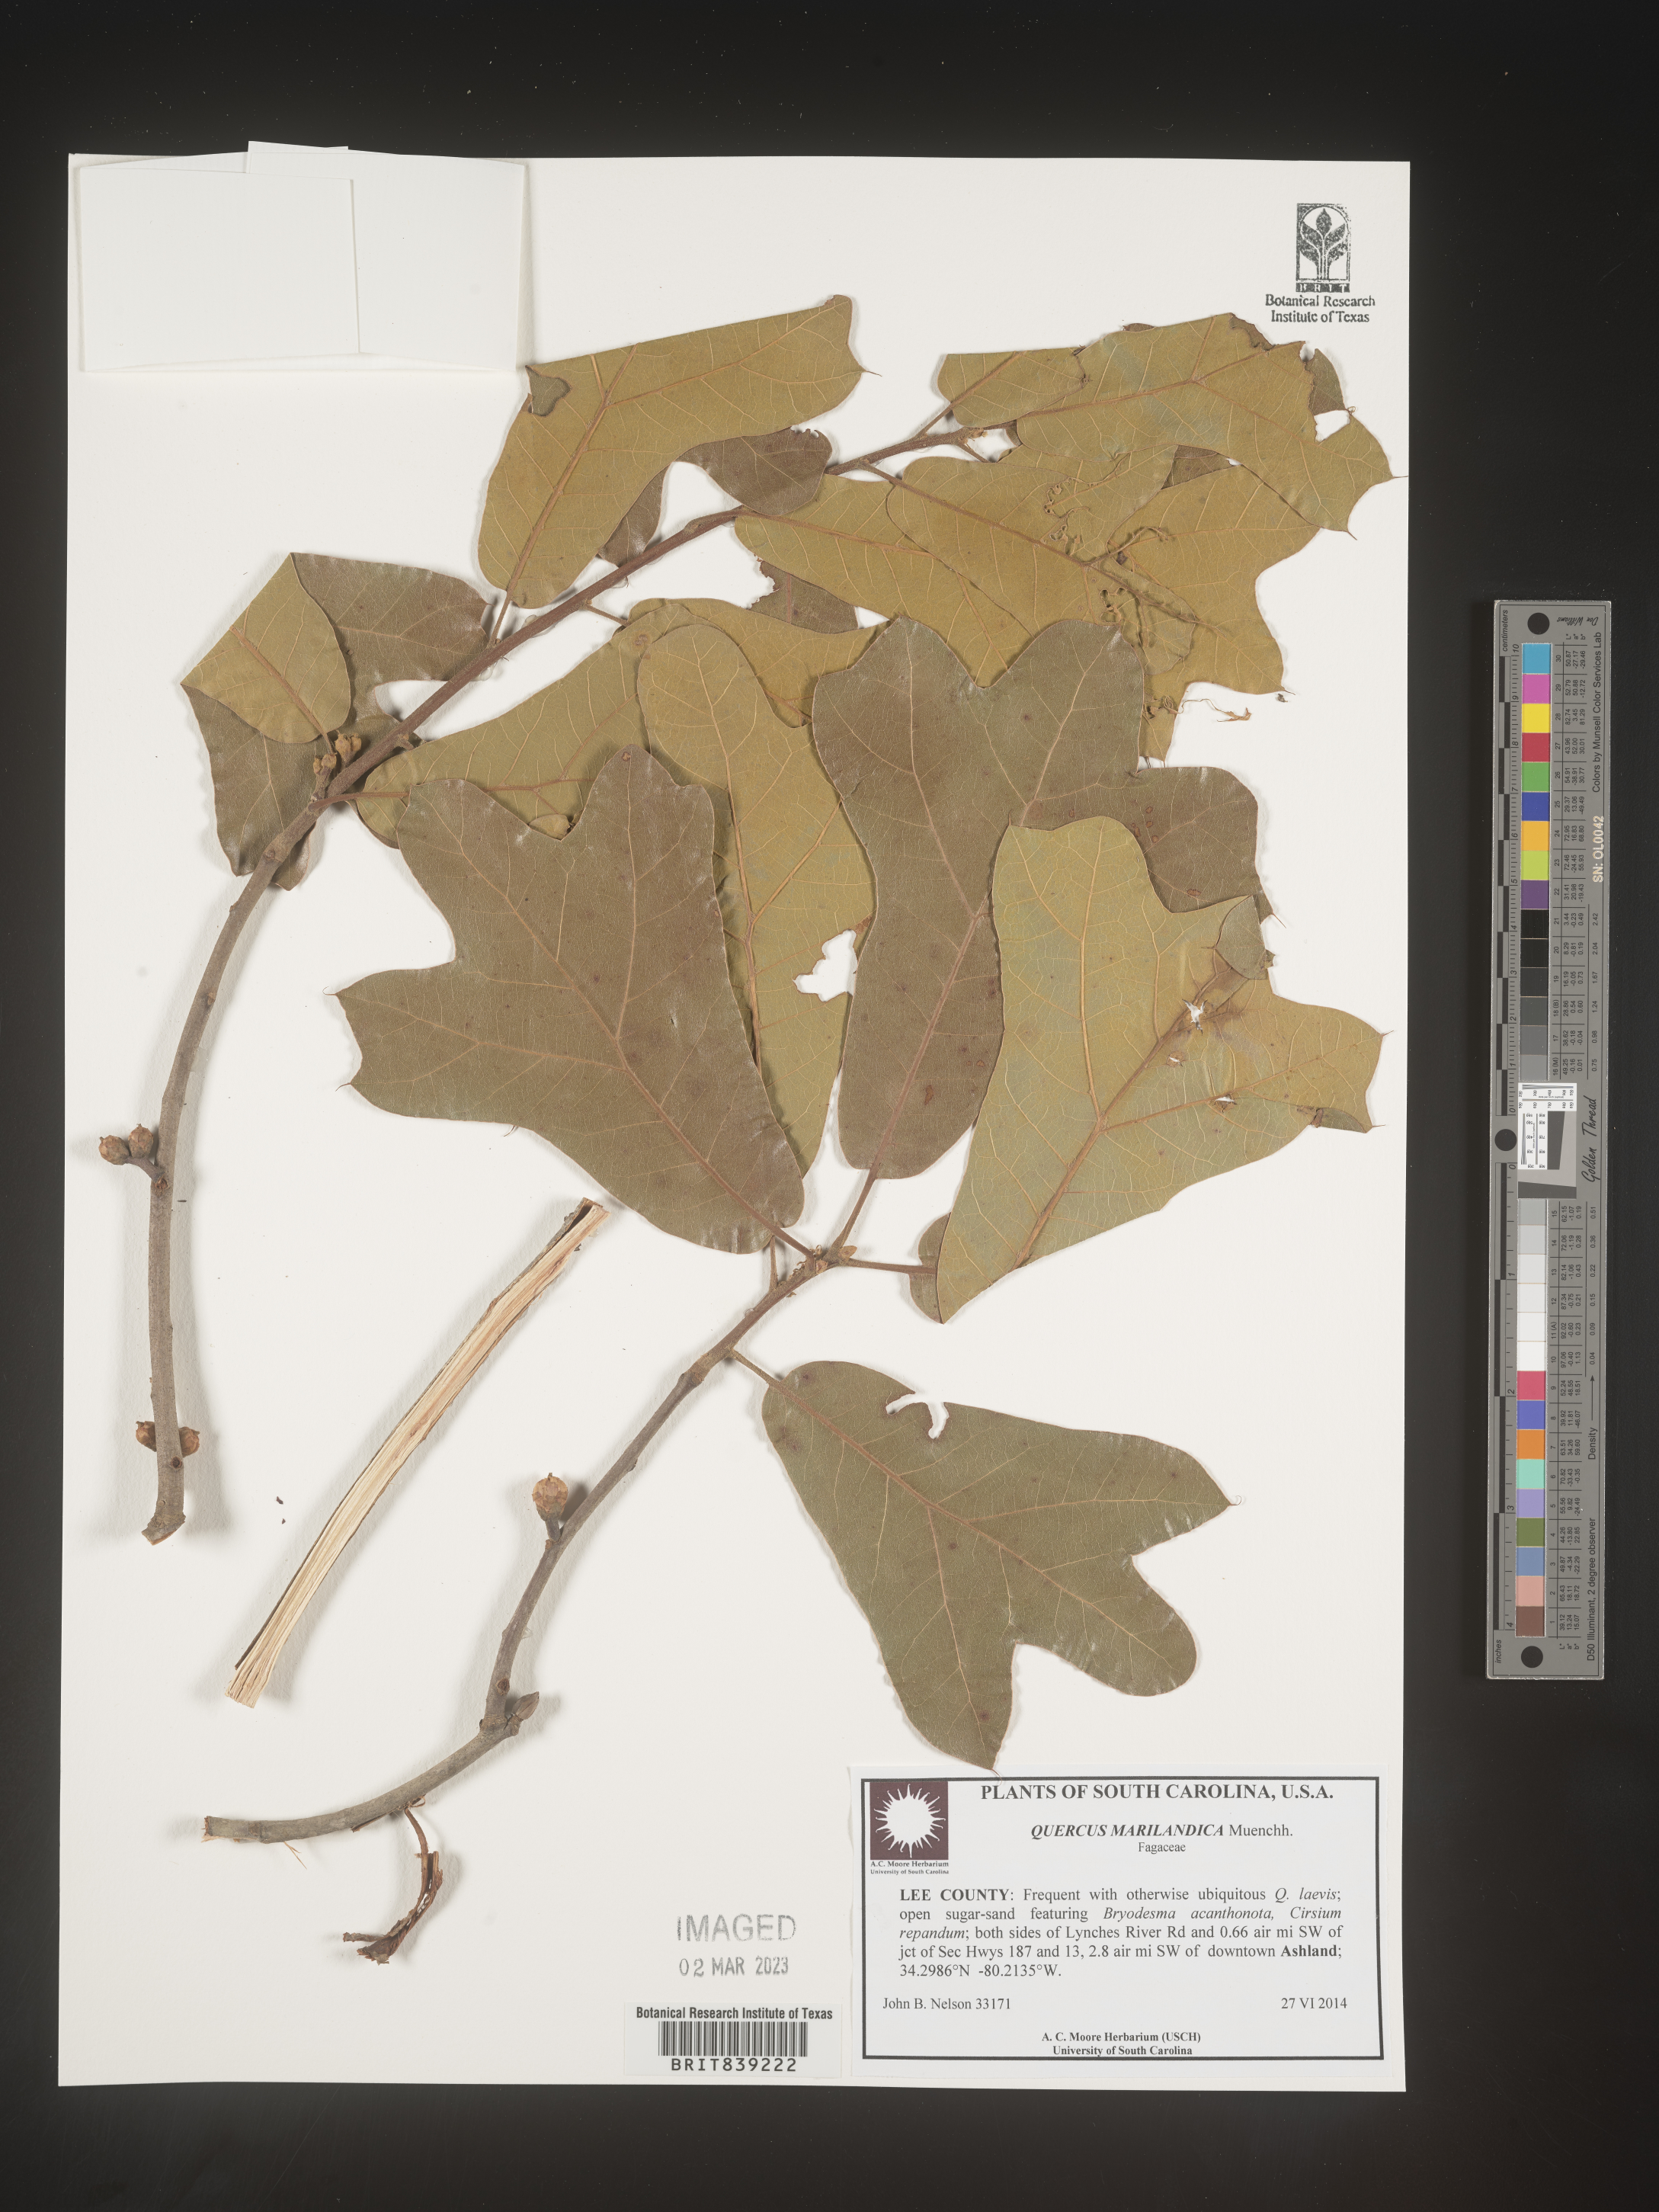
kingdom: Plantae
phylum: Tracheophyta
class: Magnoliopsida
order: Fagales
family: Fagaceae
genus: Quercus
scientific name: Quercus margaretta
